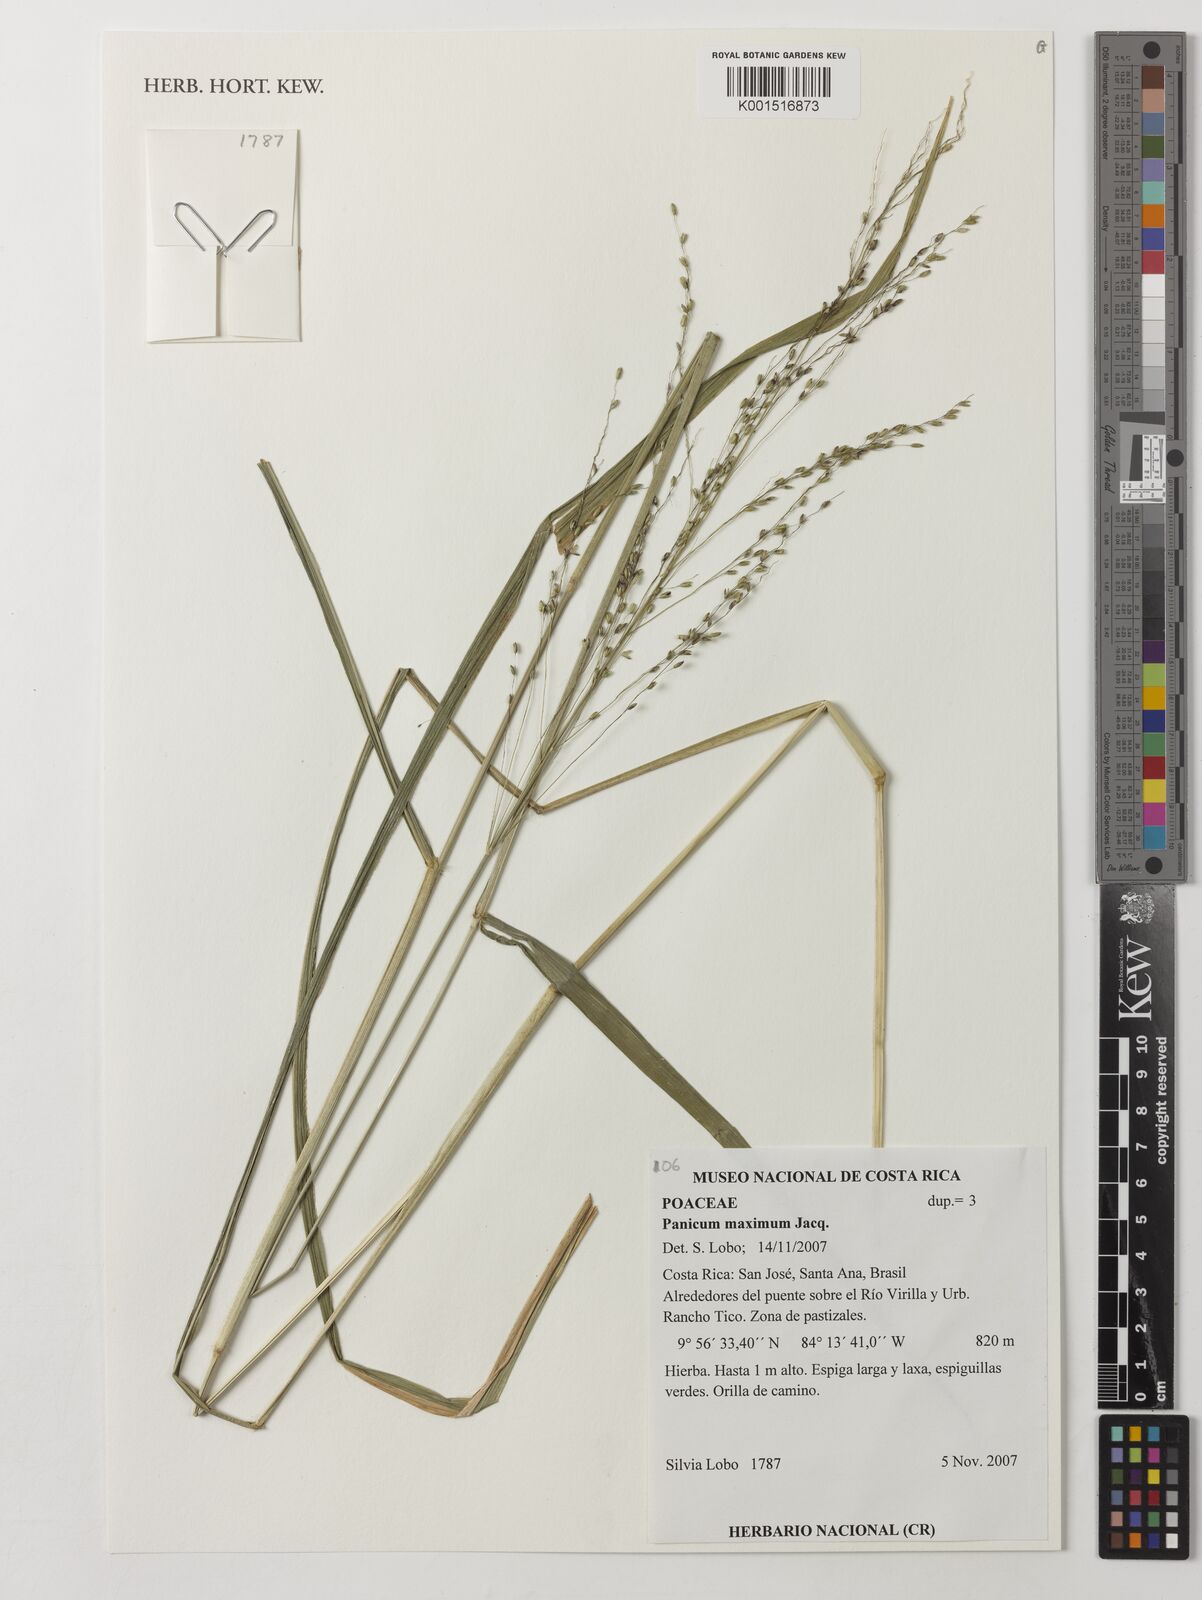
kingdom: Plantae
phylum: Tracheophyta
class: Liliopsida
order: Poales
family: Poaceae
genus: Megathyrsus
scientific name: Megathyrsus maximus
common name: Guineagrass
